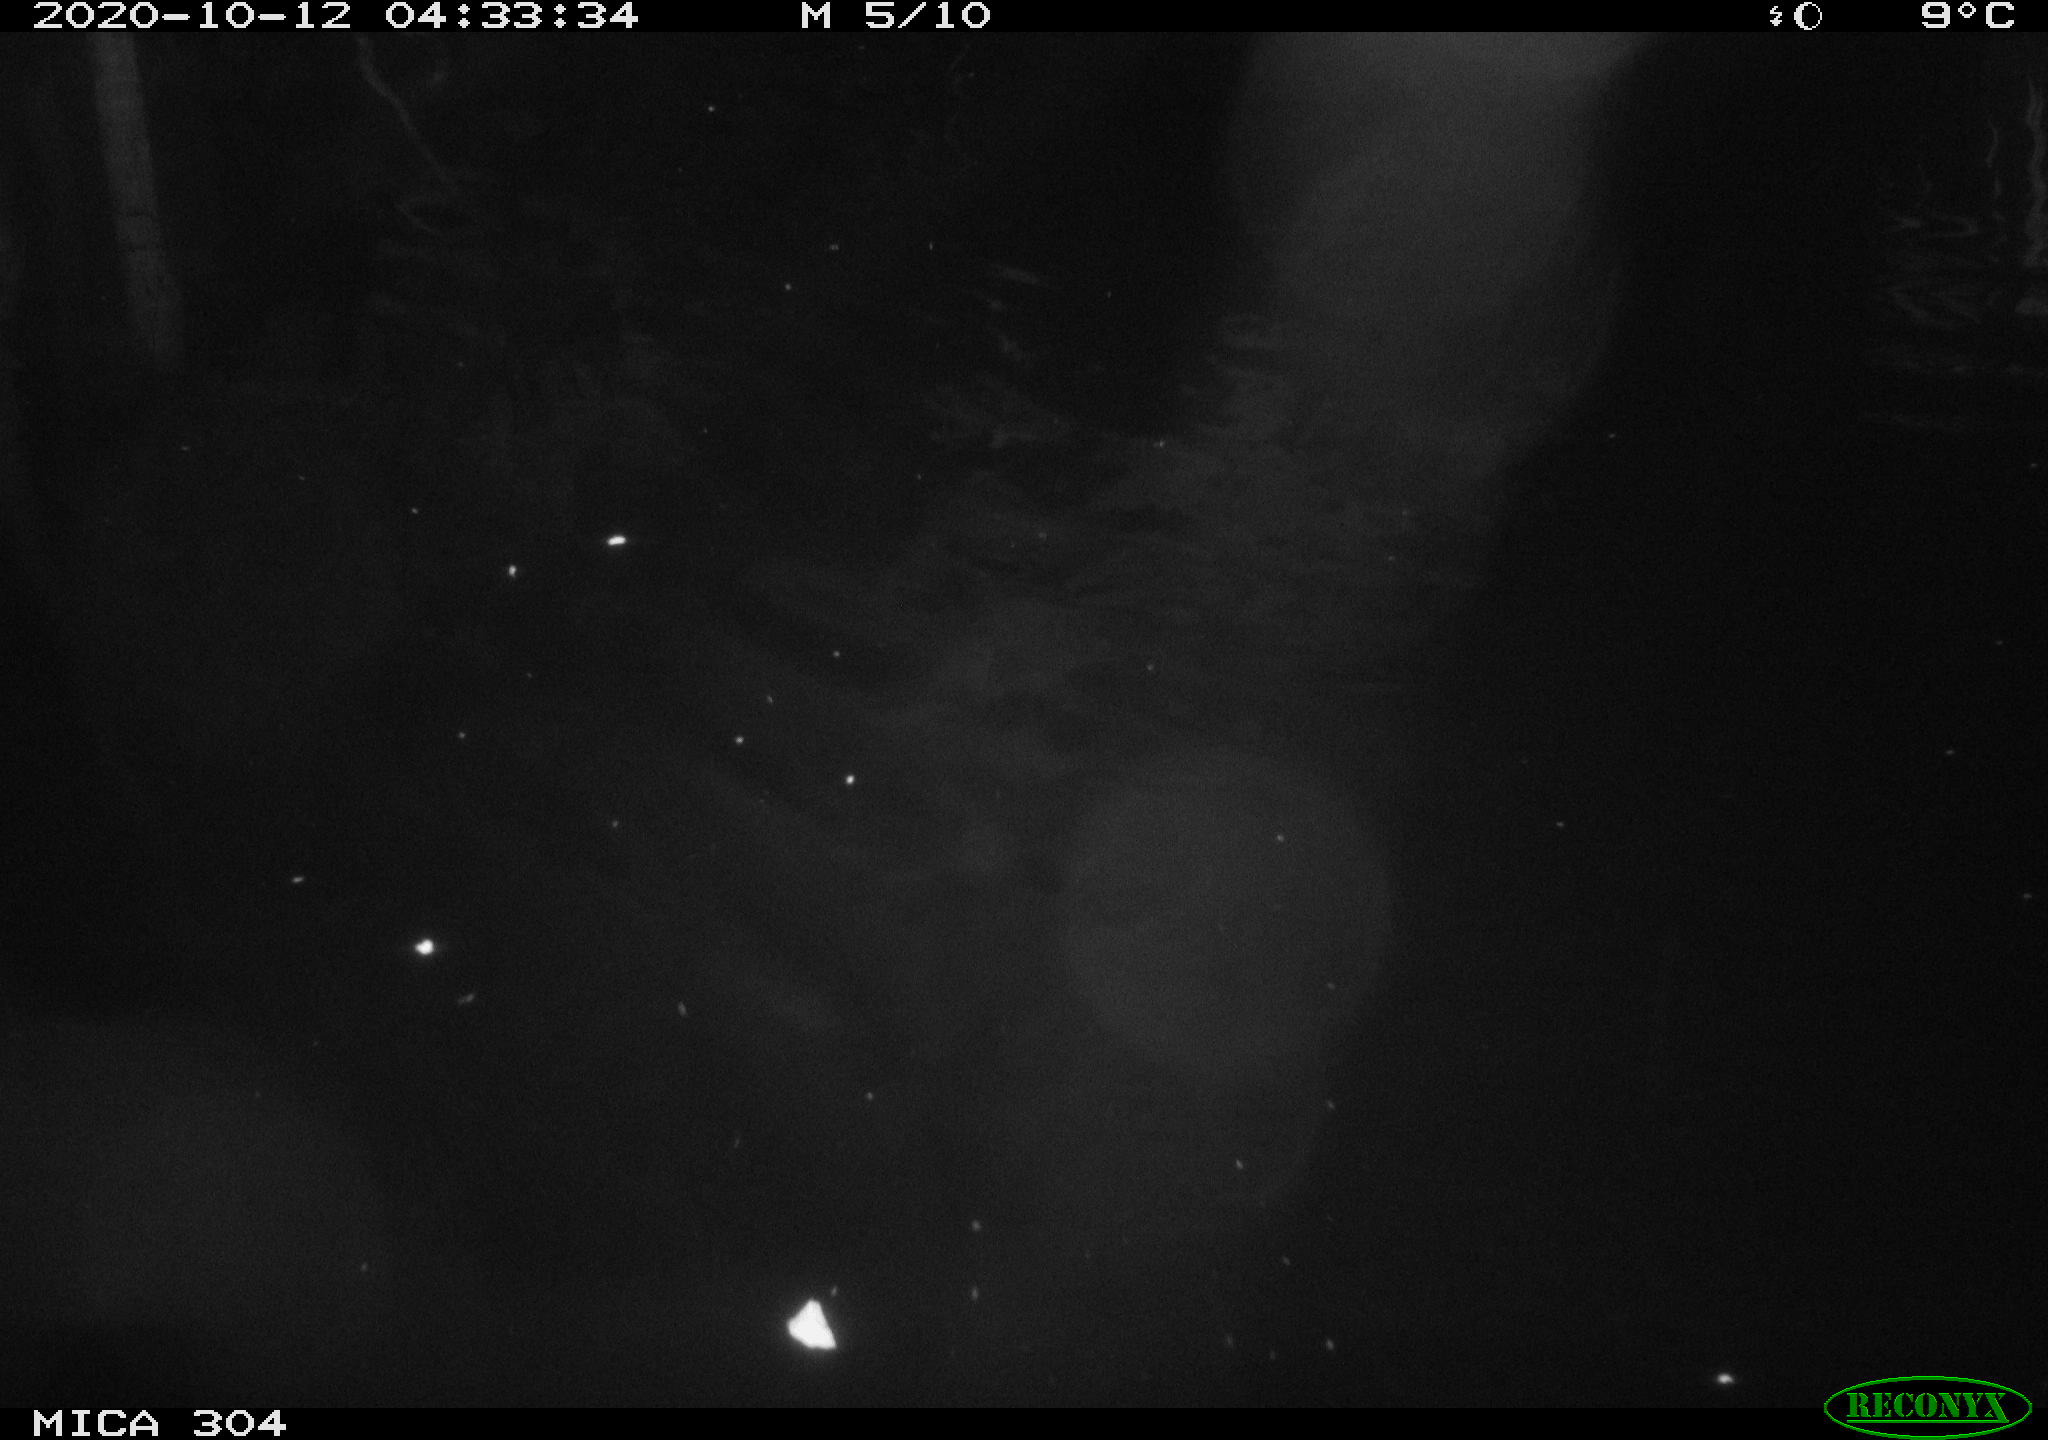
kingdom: Animalia
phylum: Chordata
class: Mammalia
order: Rodentia
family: Cricetidae
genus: Ondatra
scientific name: Ondatra zibethicus
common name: Muskrat
